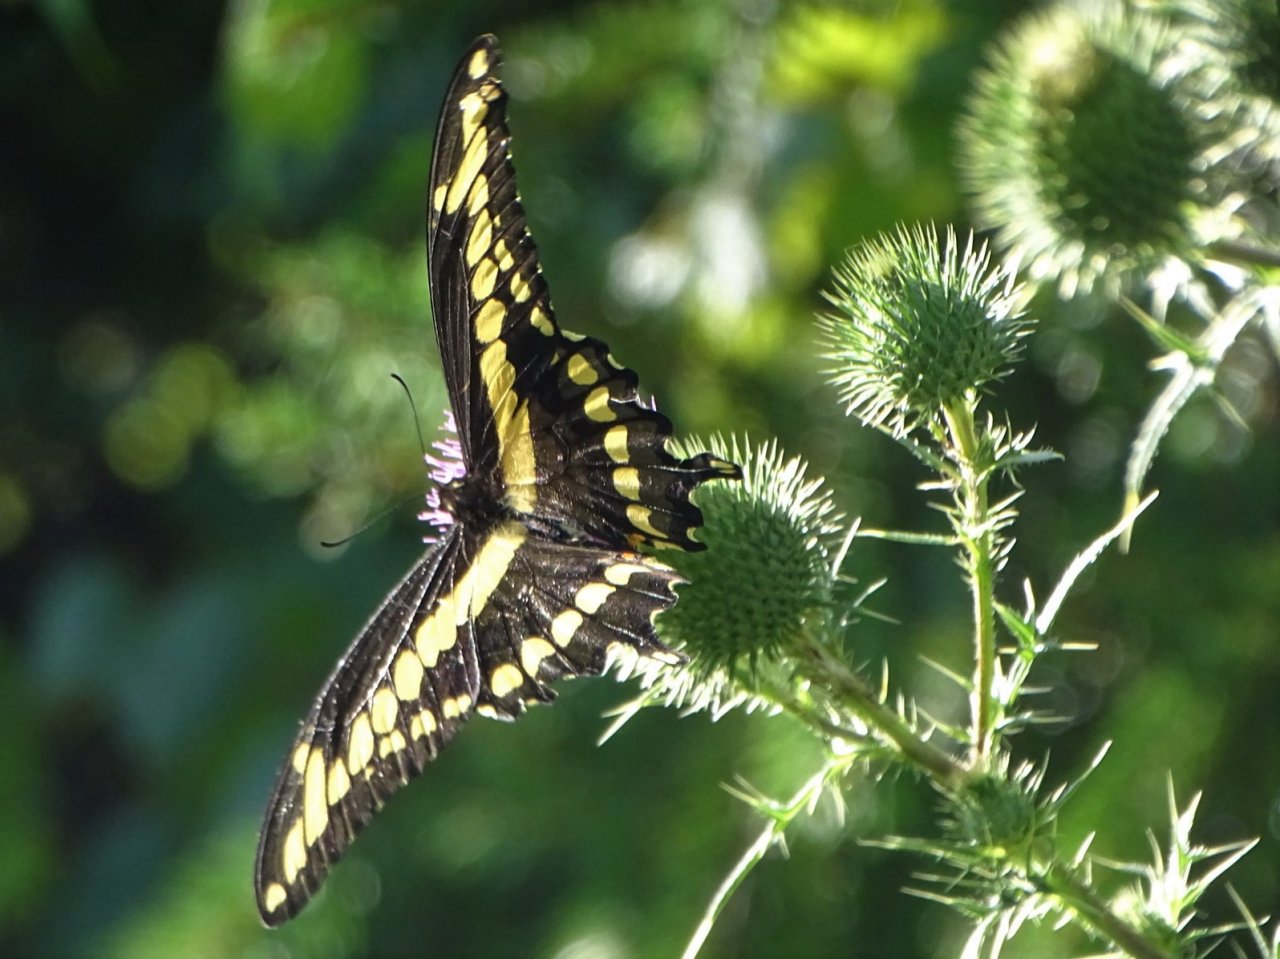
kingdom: Animalia
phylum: Arthropoda
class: Insecta
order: Lepidoptera
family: Papilionidae
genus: Papilio
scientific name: Papilio cresphontes
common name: Eastern Giant Swallowtail
